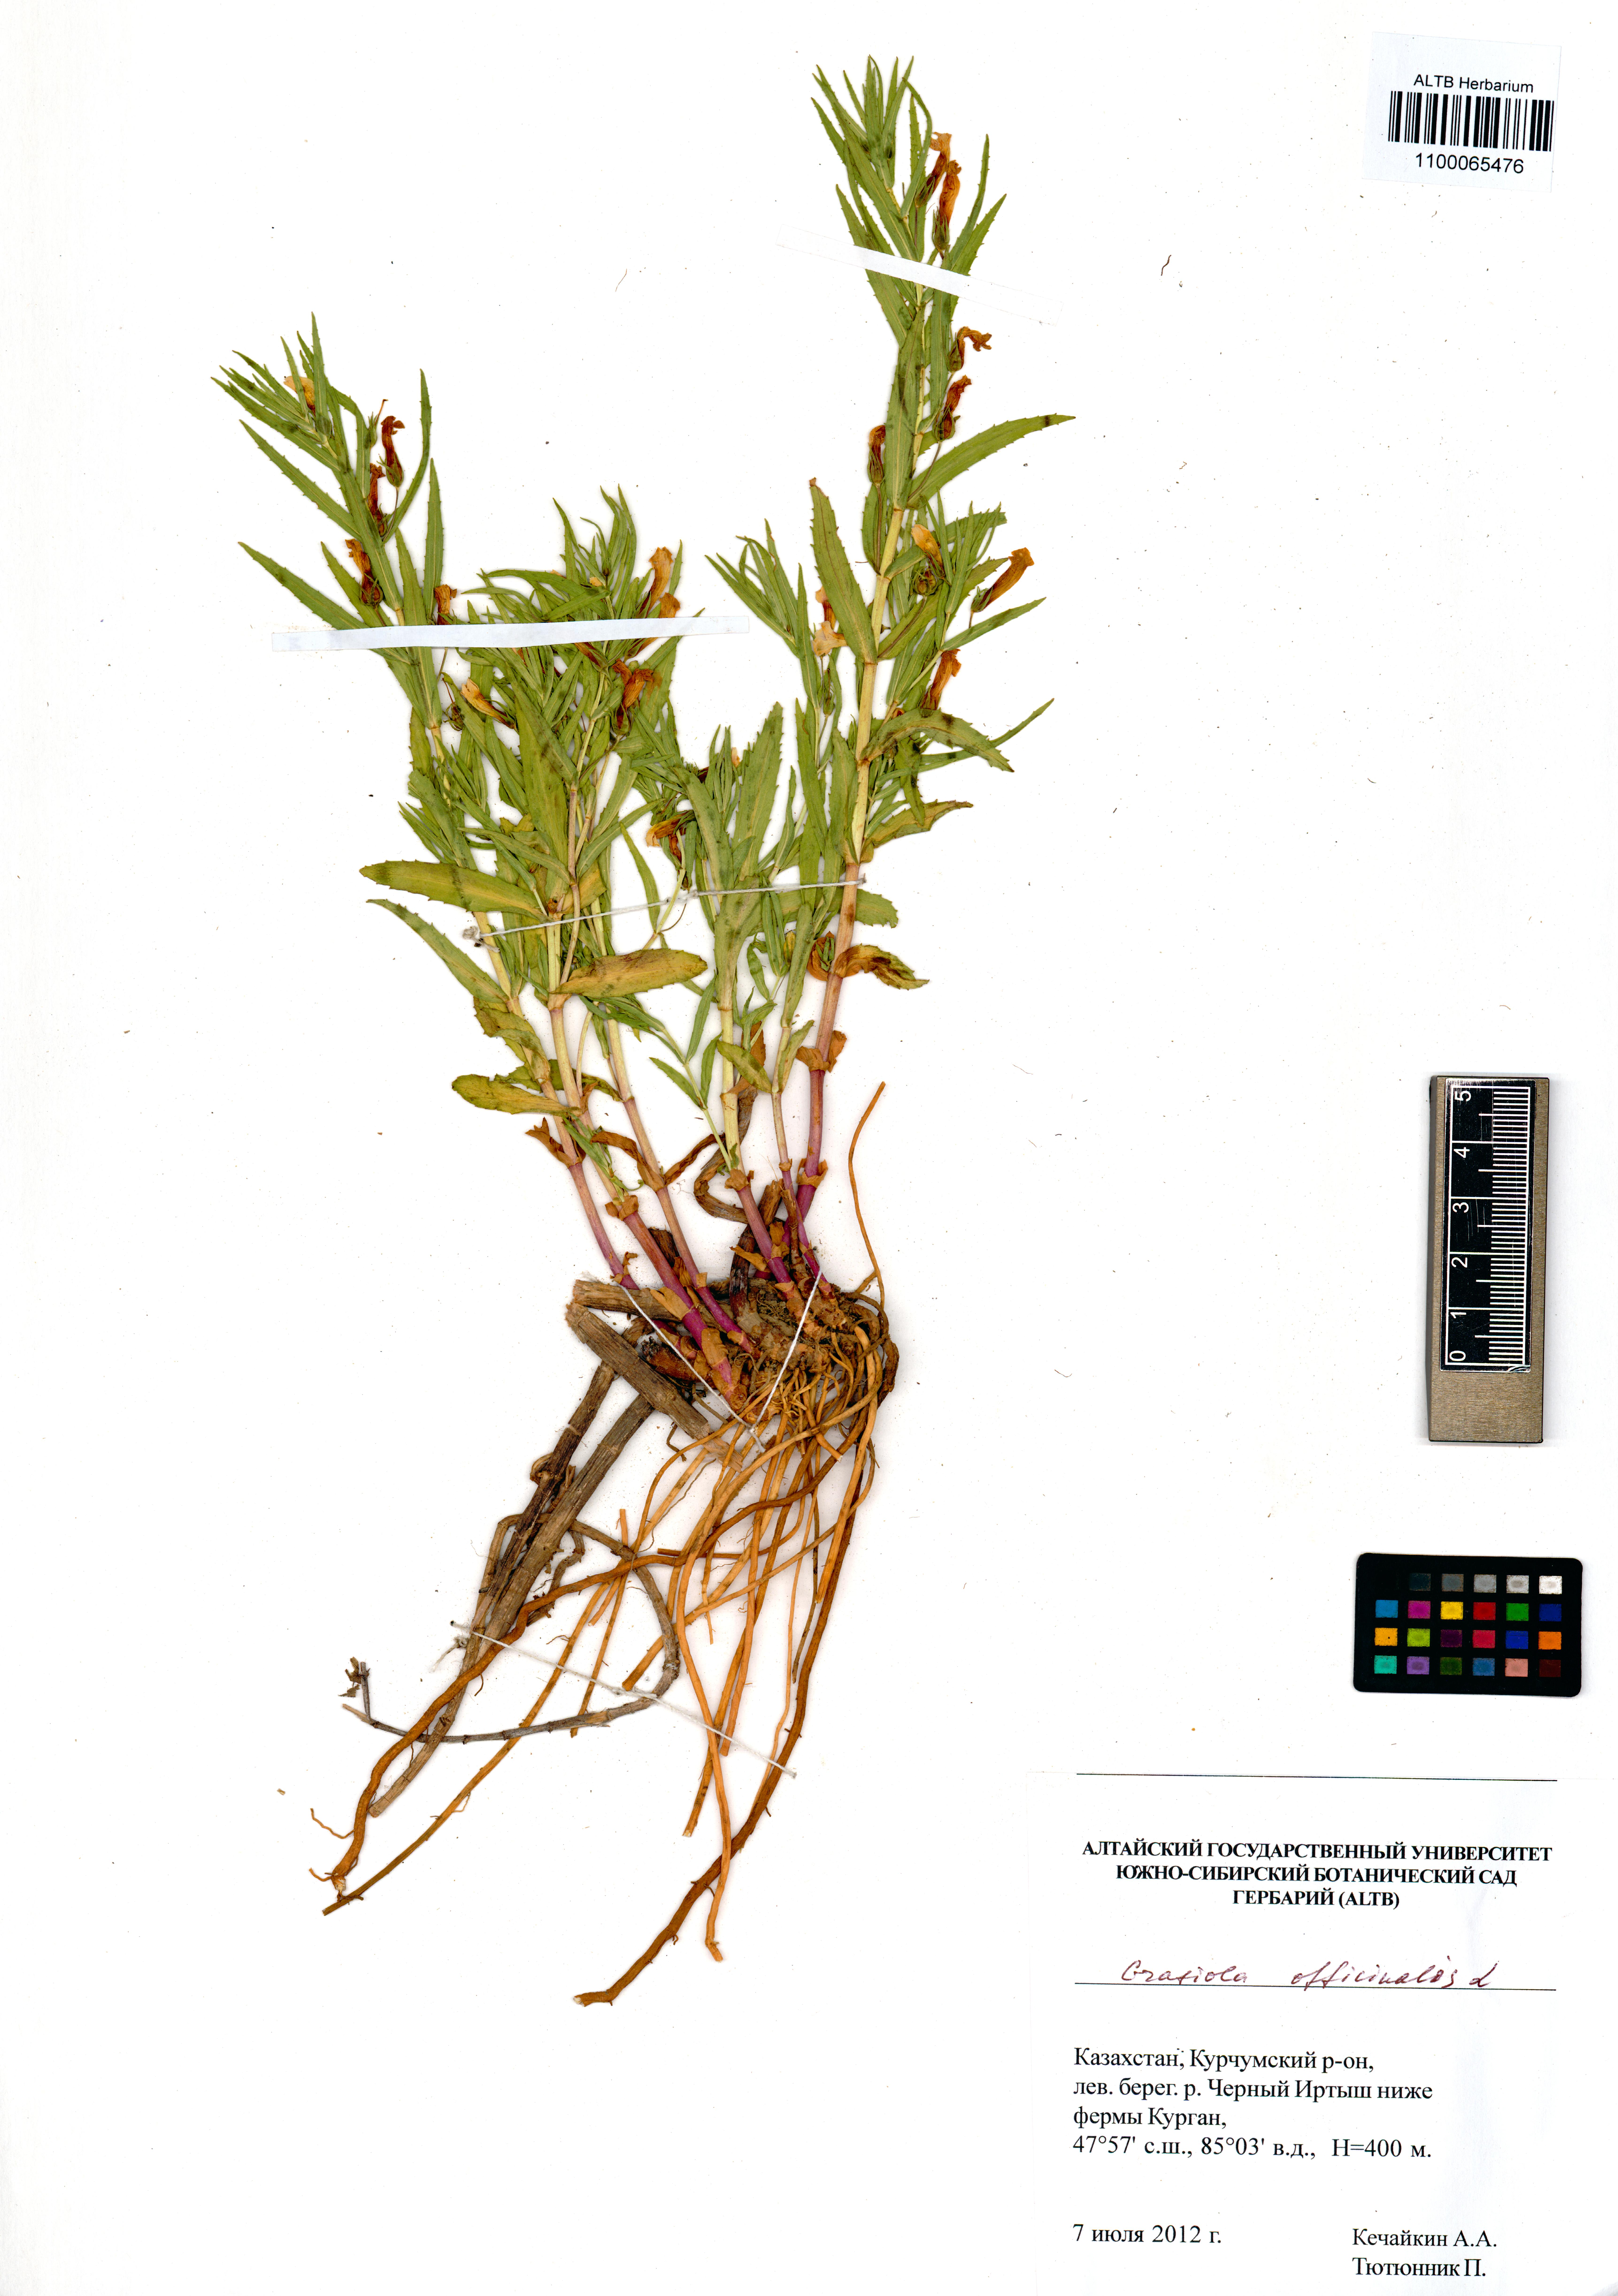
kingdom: Plantae
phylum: Tracheophyta
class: Magnoliopsida
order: Lamiales
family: Plantaginaceae
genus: Gratiola
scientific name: Gratiola officinalis
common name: Gratiola
